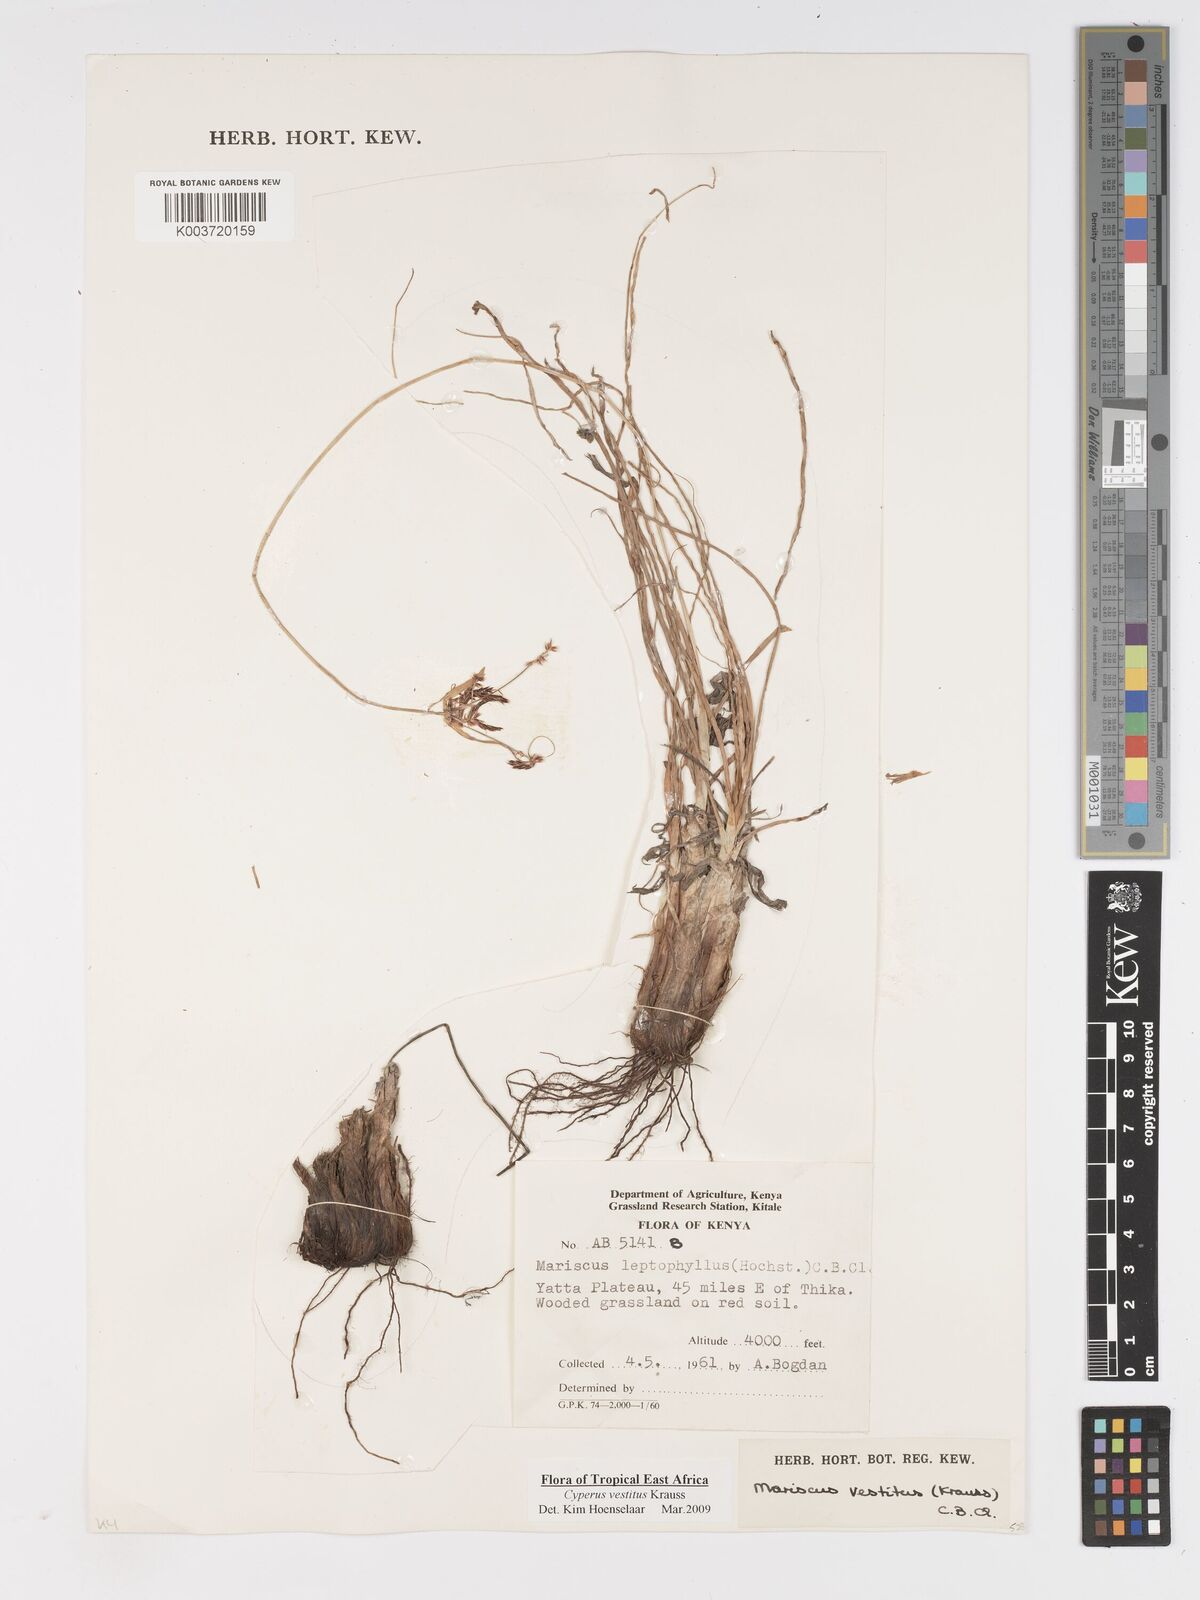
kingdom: Plantae
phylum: Tracheophyta
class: Liliopsida
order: Poales
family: Cyperaceae
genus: Cyperus
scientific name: Cyperus vestitus
